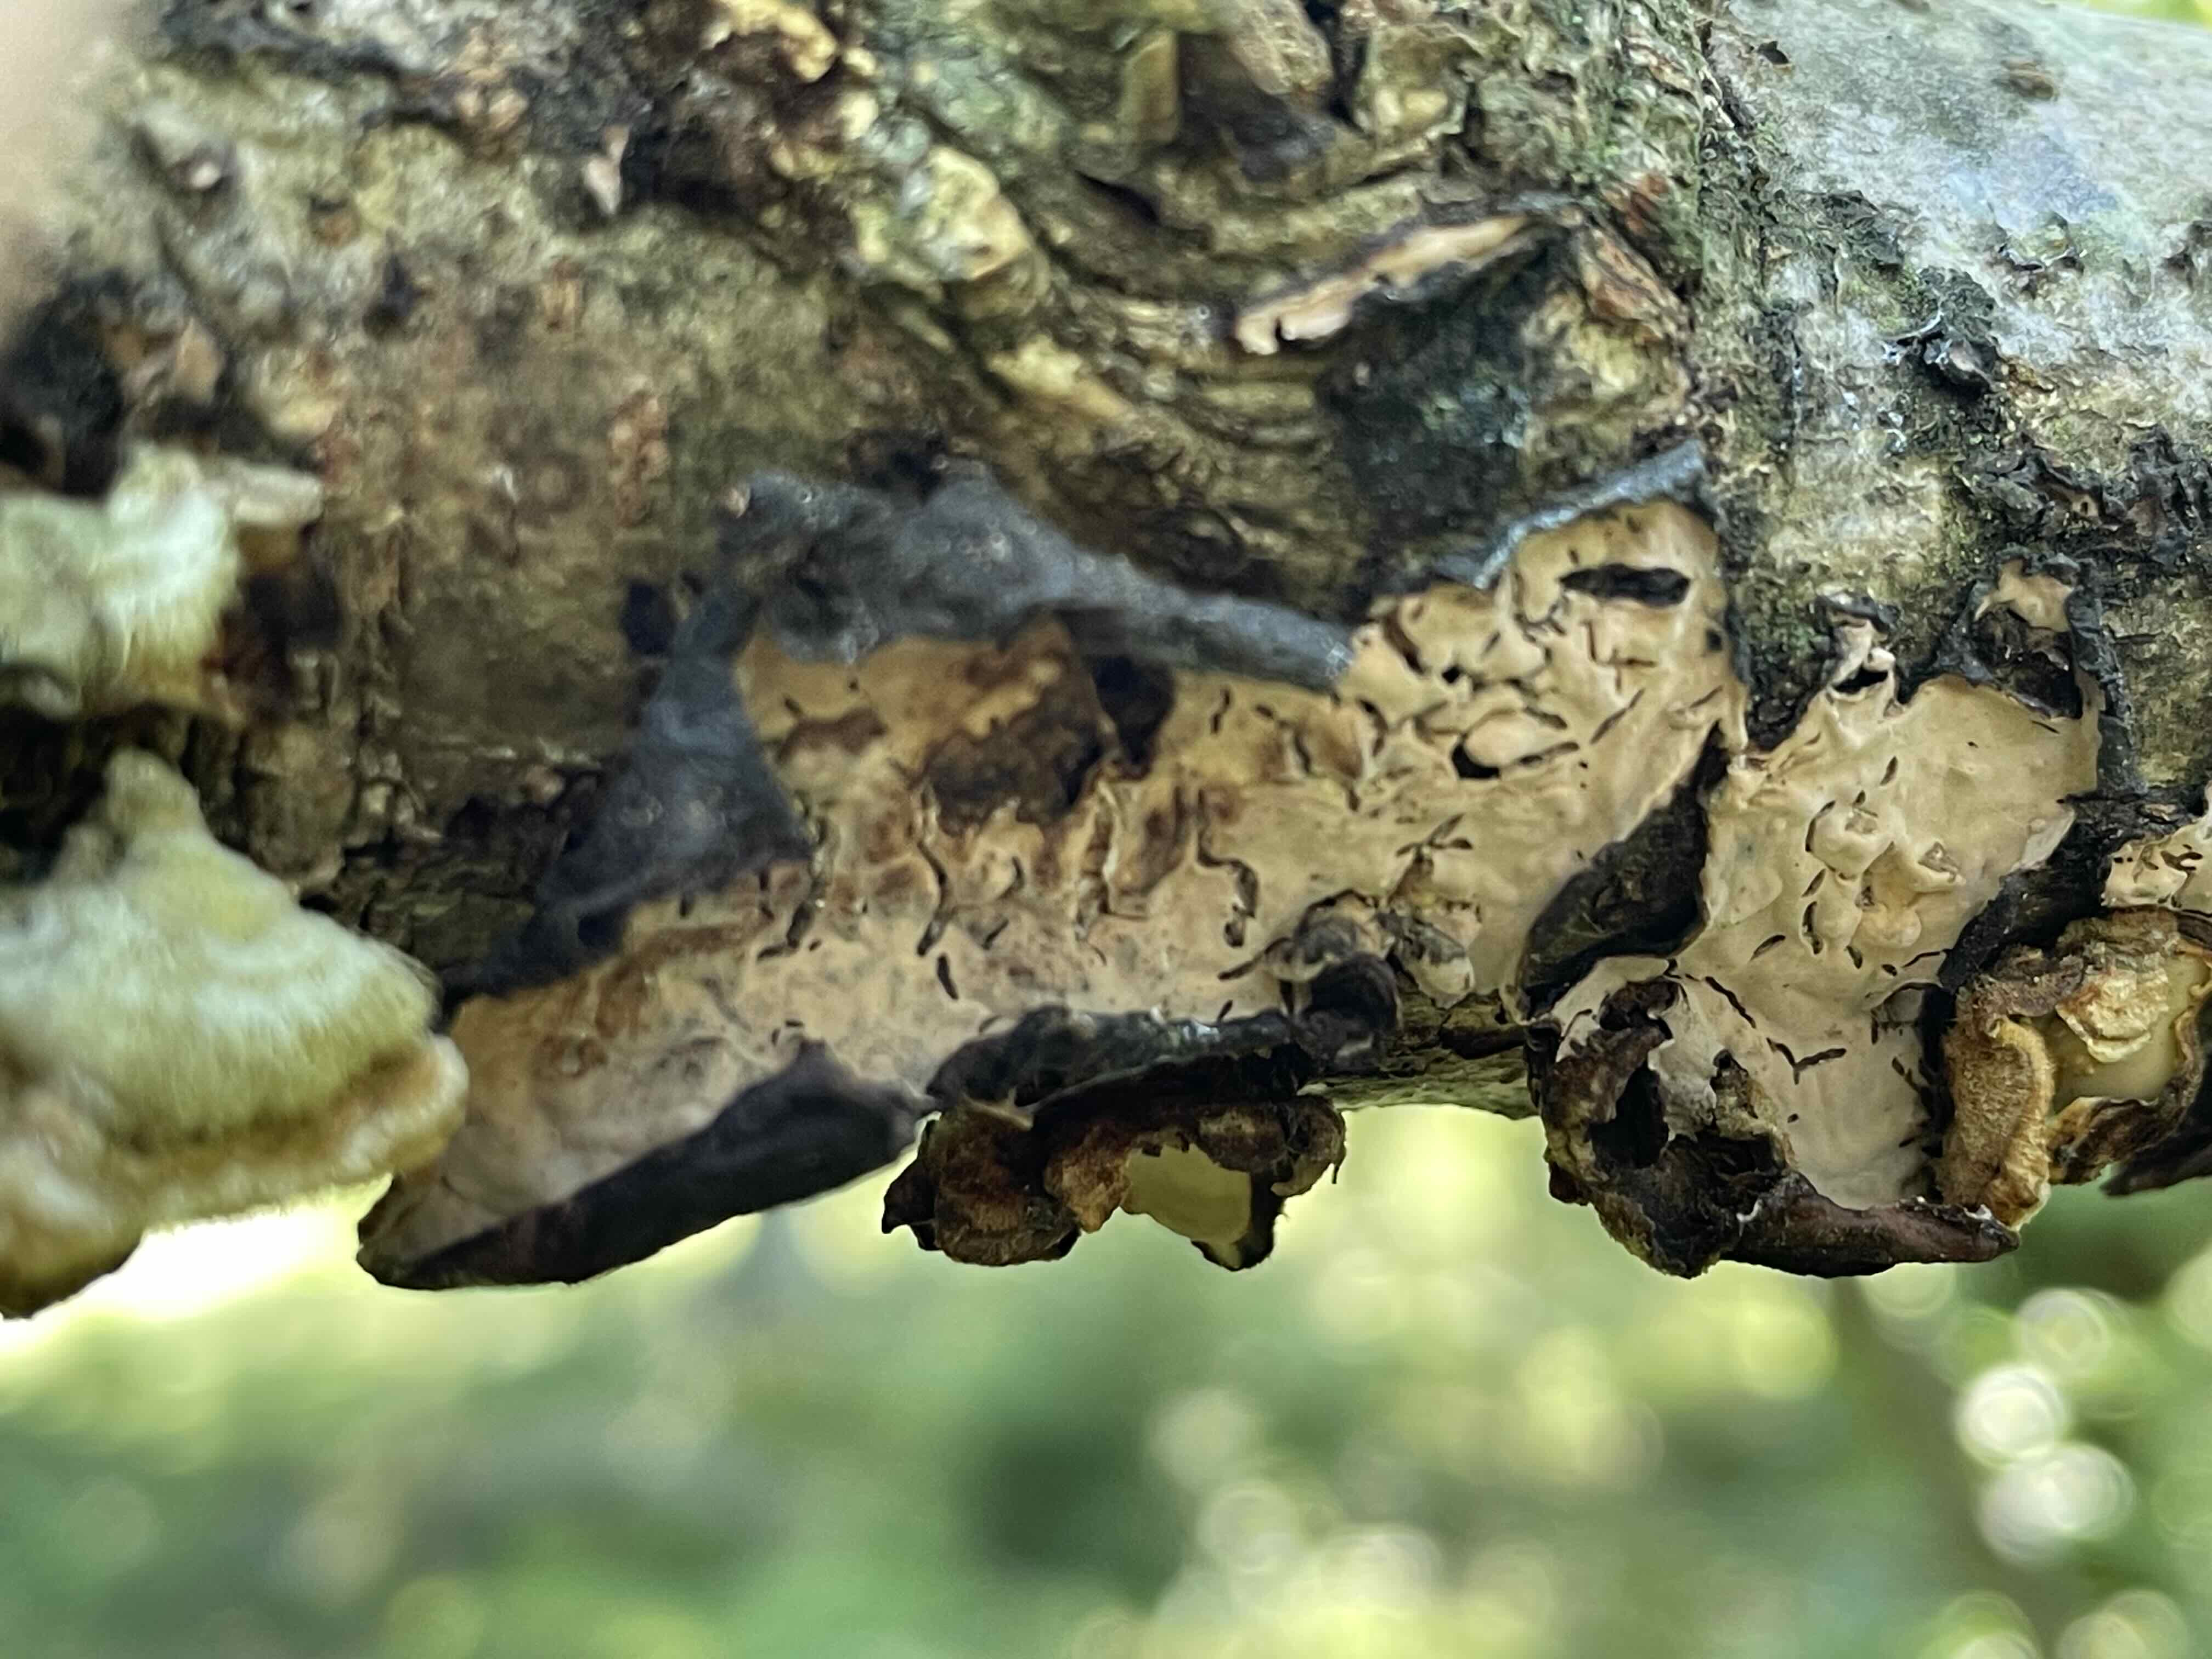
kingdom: Fungi
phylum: Basidiomycota
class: Agaricomycetes
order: Russulales
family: Peniophoraceae
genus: Peniophora
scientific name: Peniophora quercina
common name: ege-voksskind
